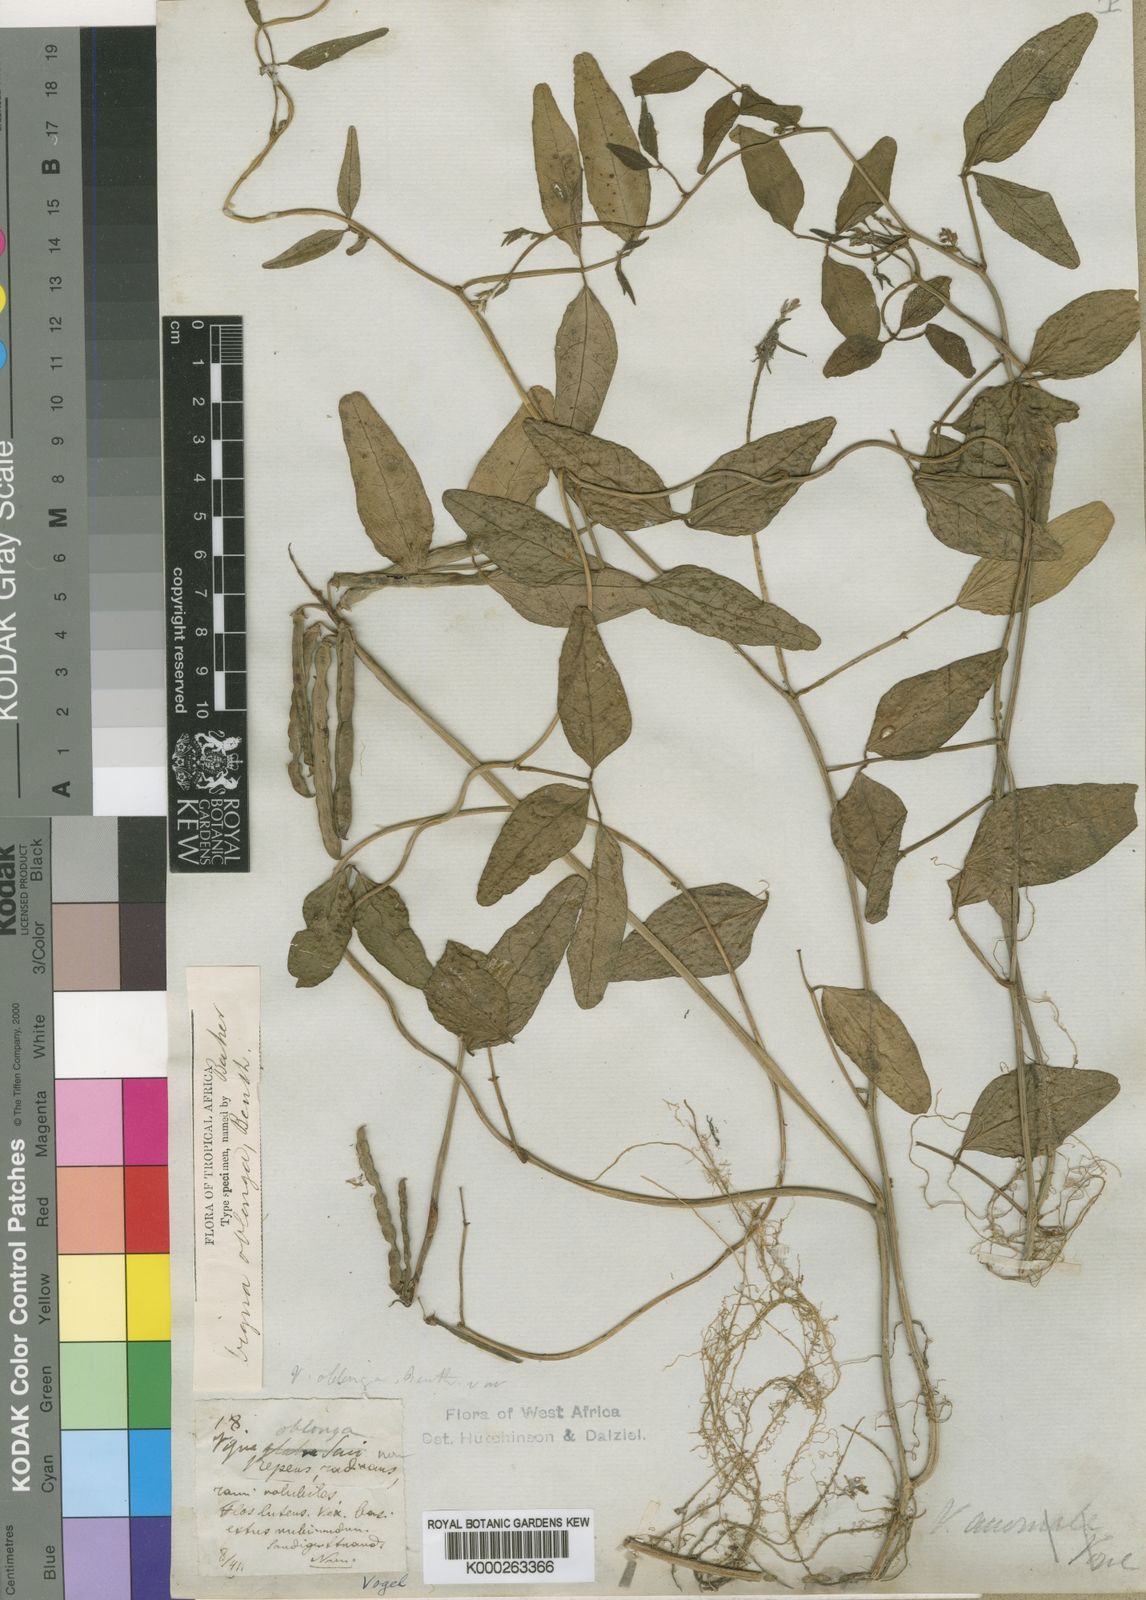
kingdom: Plantae
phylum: Tracheophyta
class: Magnoliopsida
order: Fabales
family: Fabaceae
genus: Vigna
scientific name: Vigna marina
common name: Dune-bean
